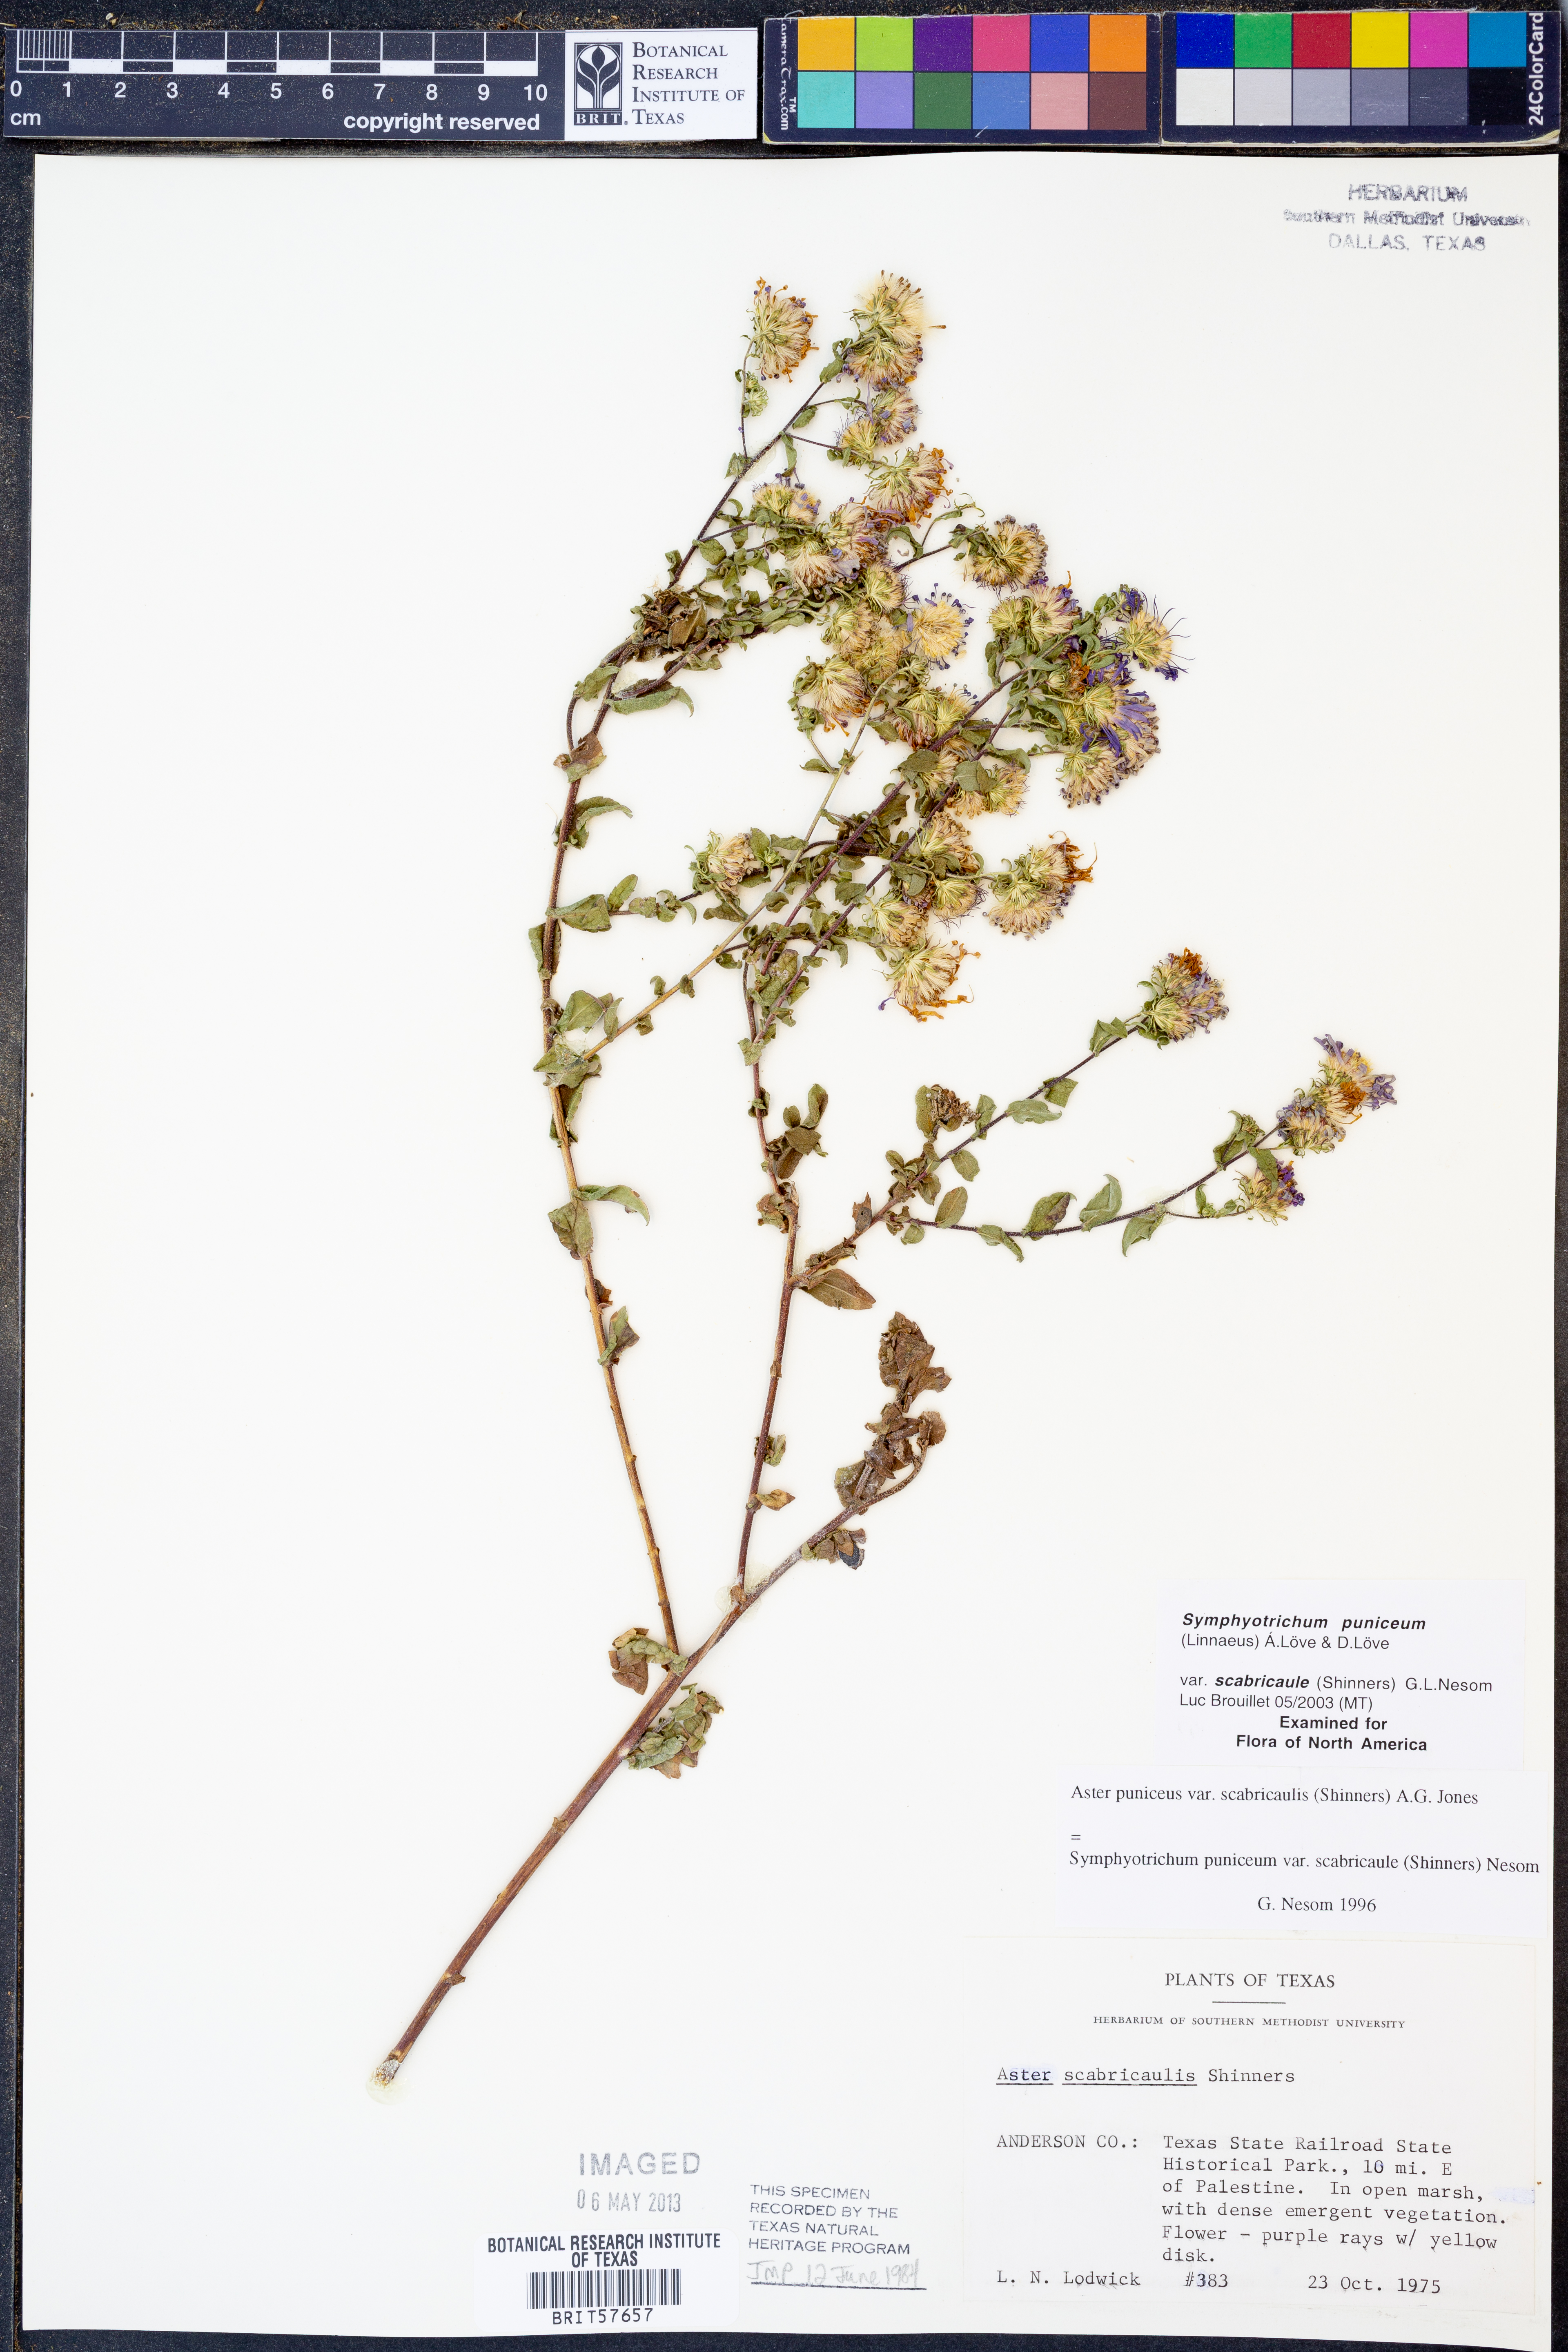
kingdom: Plantae
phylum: Tracheophyta
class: Magnoliopsida
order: Asterales
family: Asteraceae
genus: Symphyotrichum
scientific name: Symphyotrichum puniceum
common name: Bog aster
